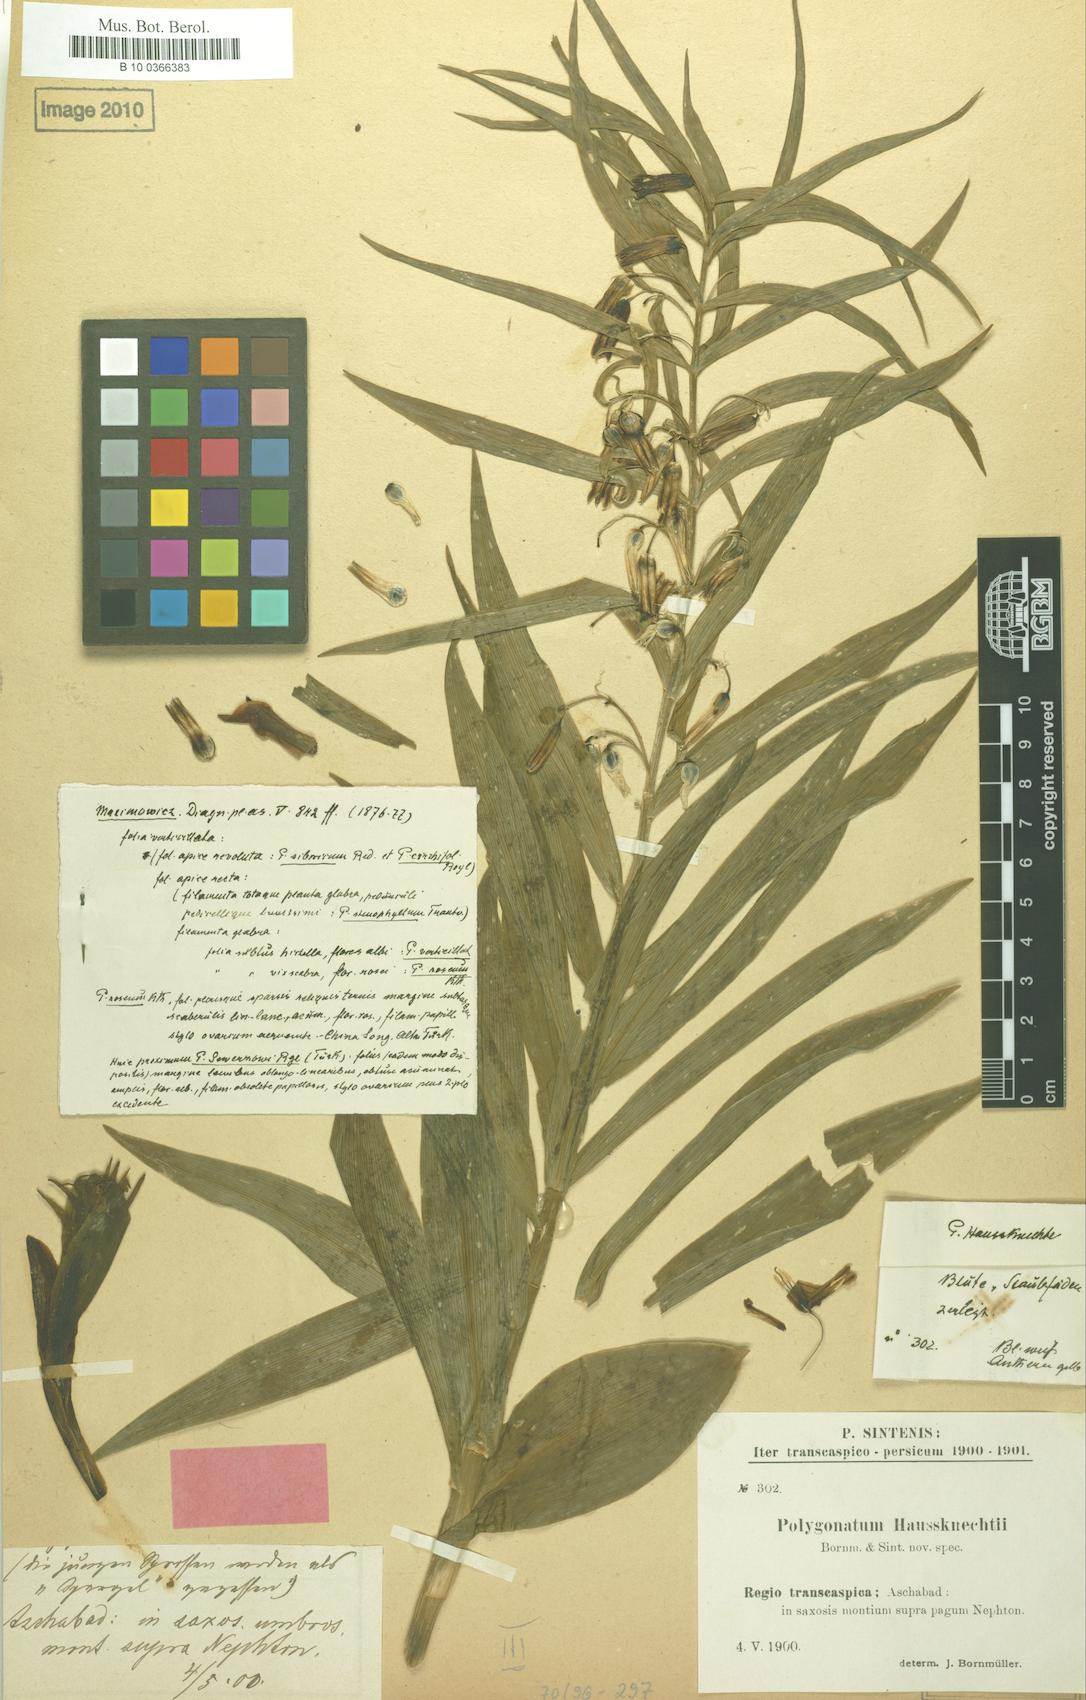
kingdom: Plantae
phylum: Tracheophyta
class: Liliopsida
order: Asparagales
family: Asparagaceae
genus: Polygonatum
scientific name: Polygonatum sewerzowii
